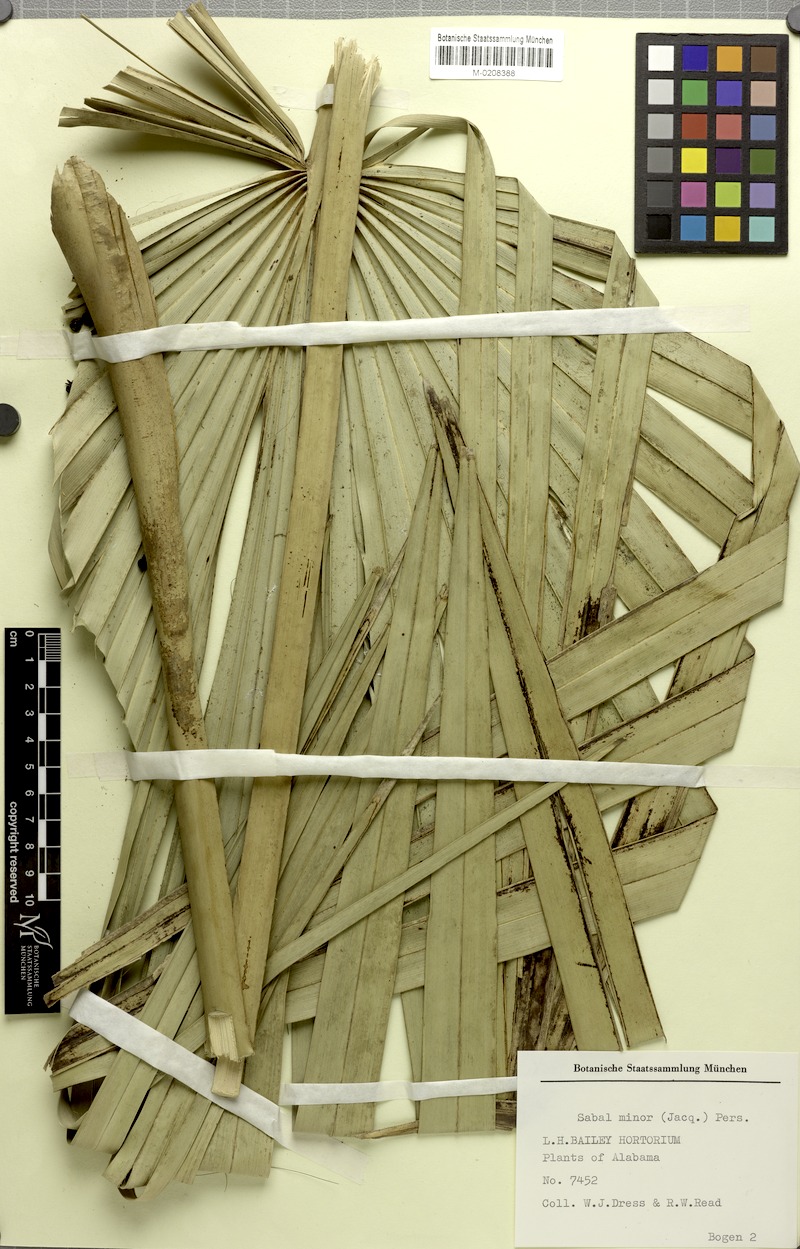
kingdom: Plantae
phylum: Tracheophyta
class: Liliopsida
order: Arecales
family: Arecaceae
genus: Sabal
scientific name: Sabal minor
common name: Dwarf palmetto
